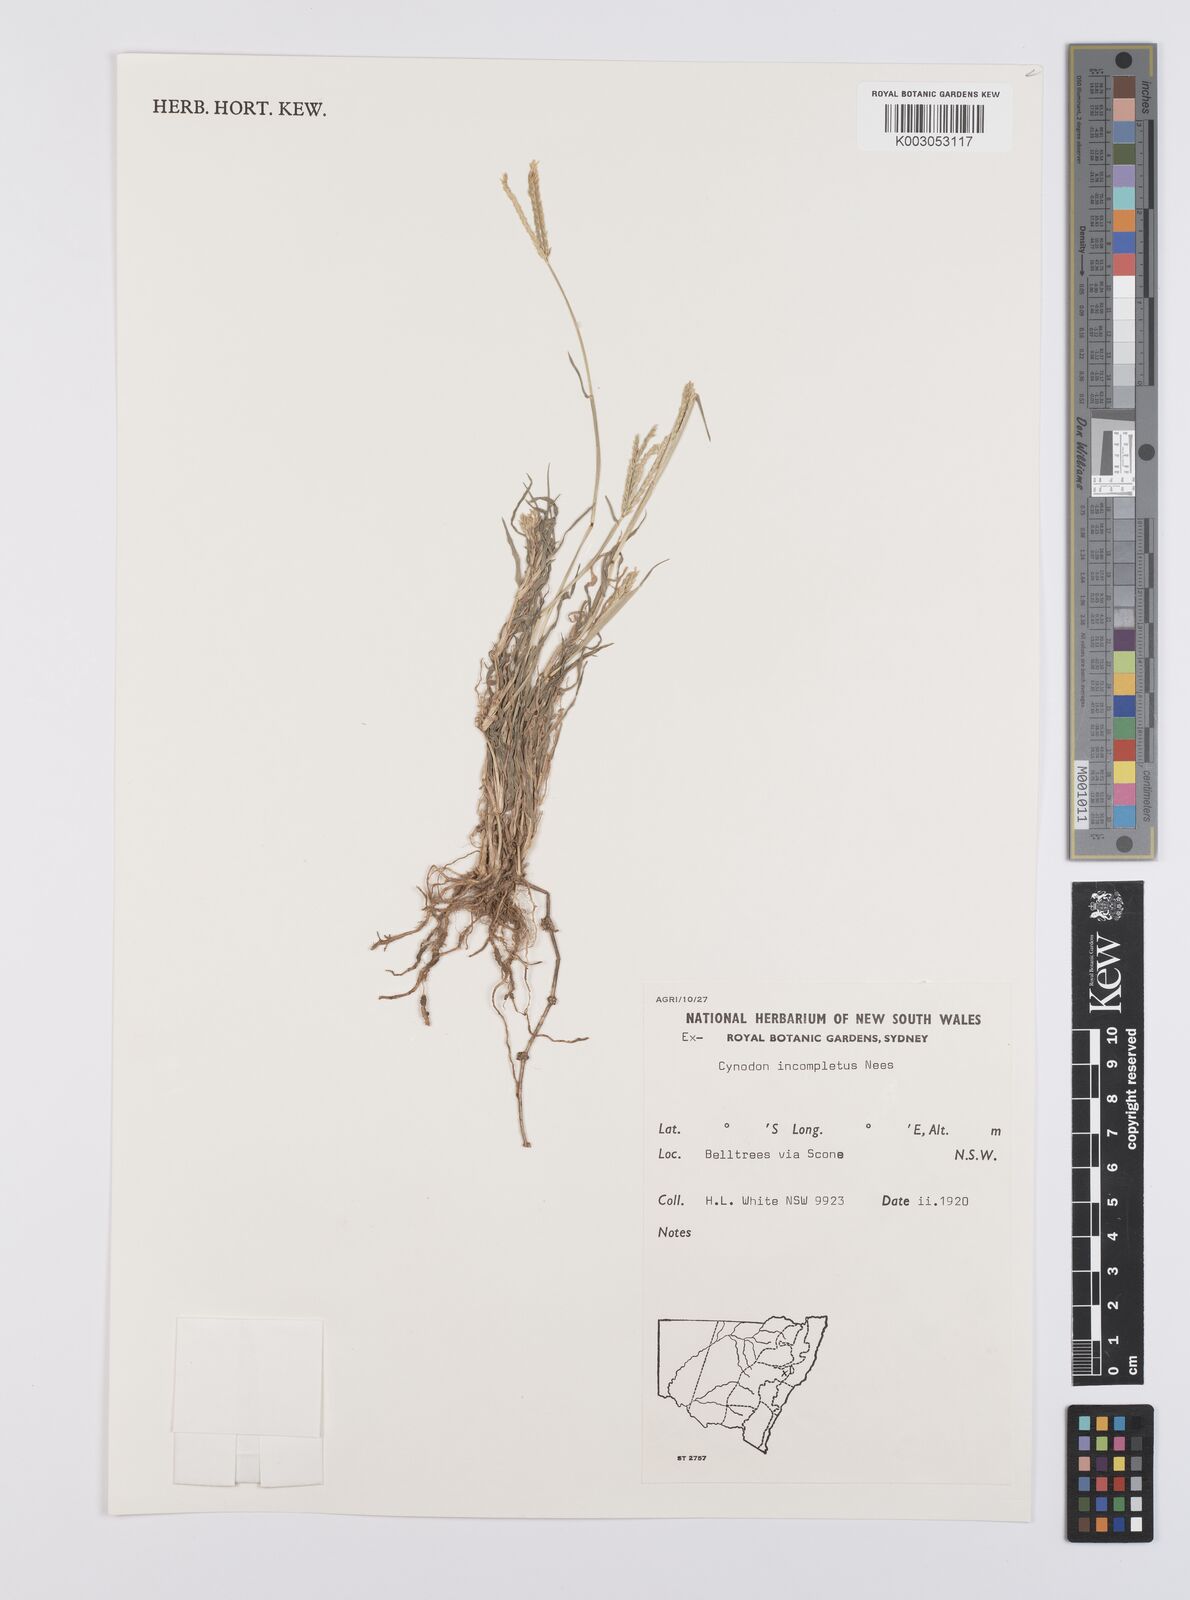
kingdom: Plantae
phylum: Tracheophyta
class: Liliopsida
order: Poales
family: Poaceae
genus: Cynodon
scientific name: Cynodon incompletus
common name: African bermuda-grass
